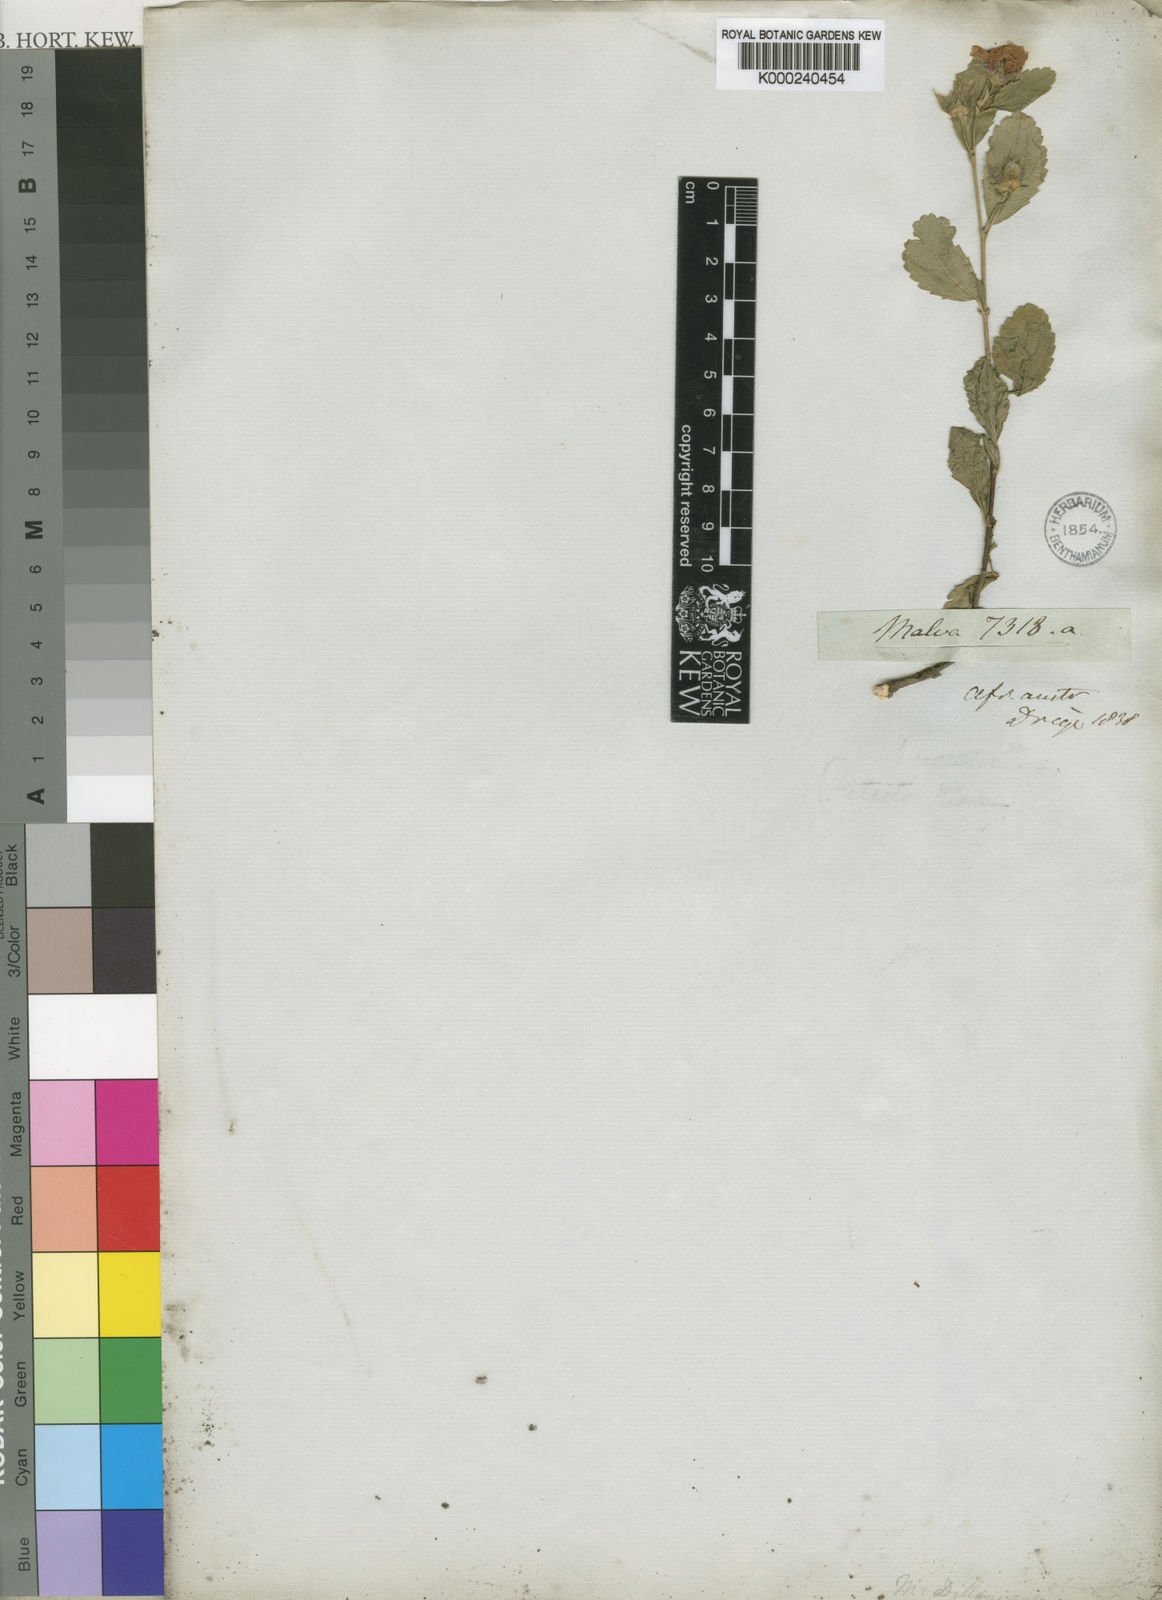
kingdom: Plantae
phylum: Tracheophyta
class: Magnoliopsida
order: Malvales
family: Malvaceae
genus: Anisodontea
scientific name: Anisodontea scabrosa
